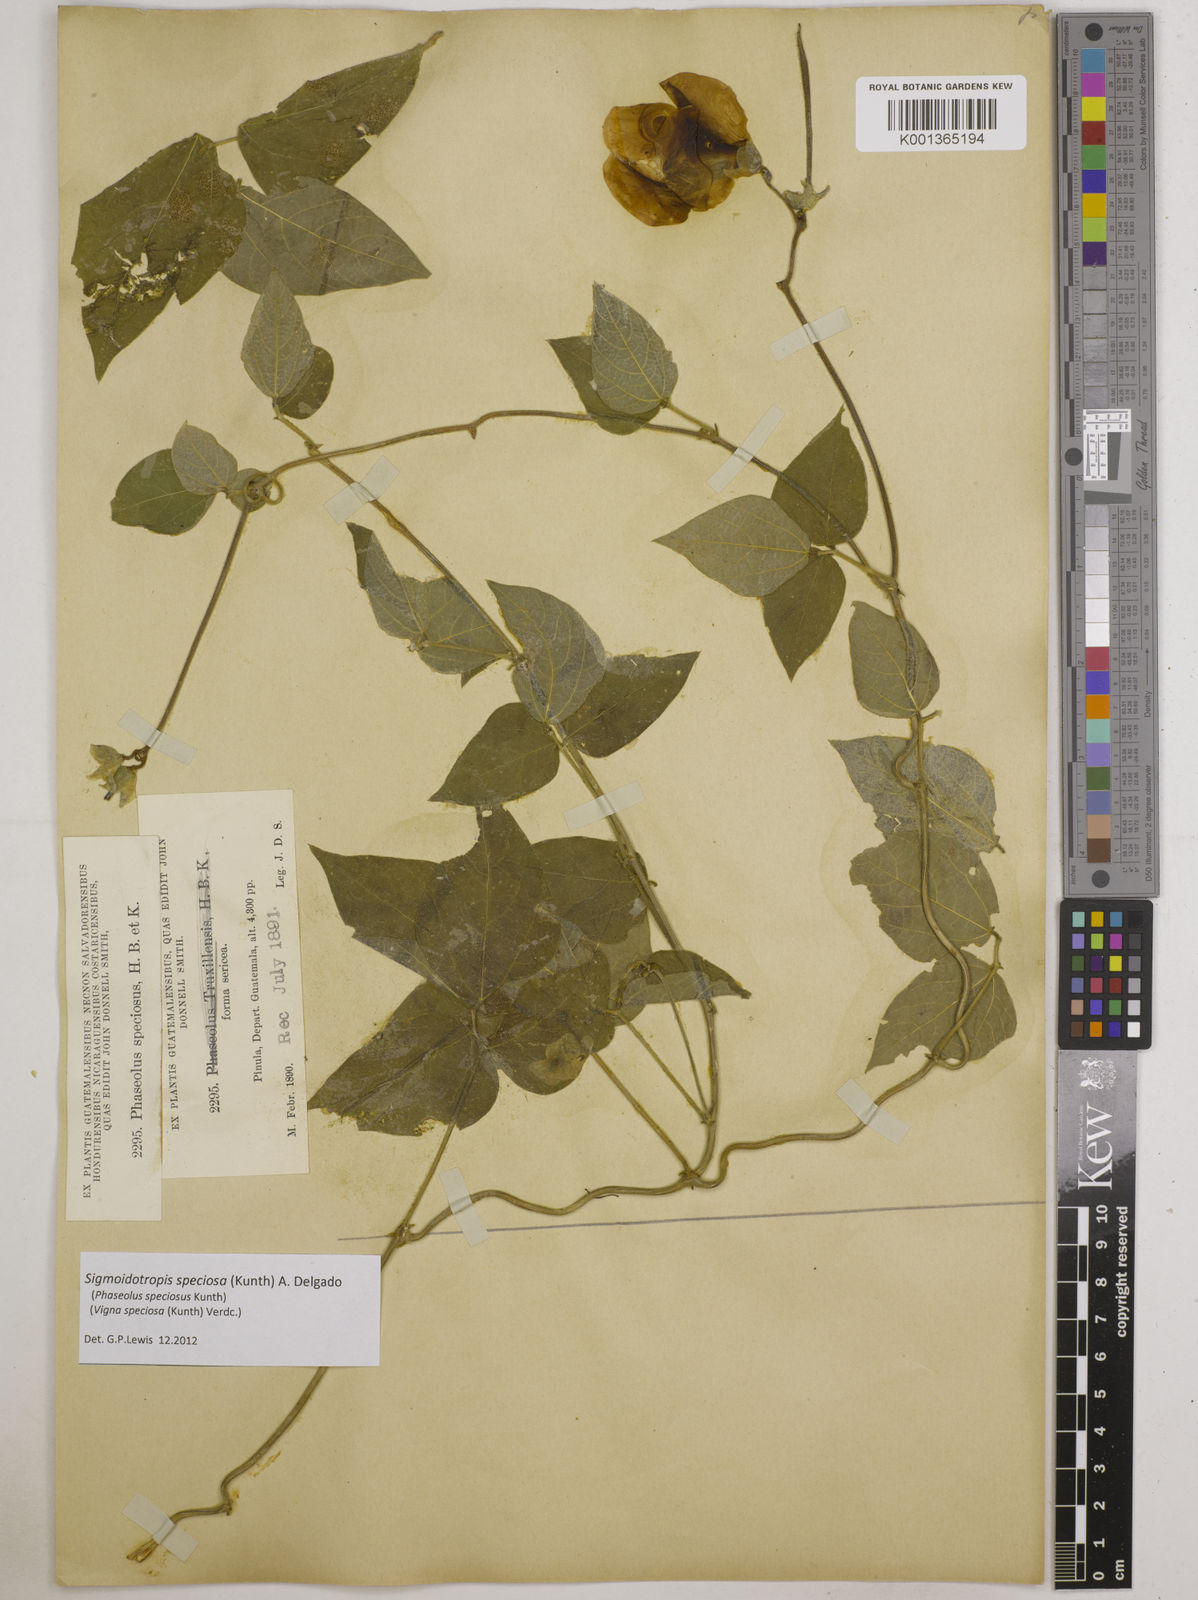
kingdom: Plantae
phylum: Tracheophyta
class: Magnoliopsida
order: Fabales
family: Fabaceae
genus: Sigmoidotropis
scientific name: Sigmoidotropis speciosa
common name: Snail flower
